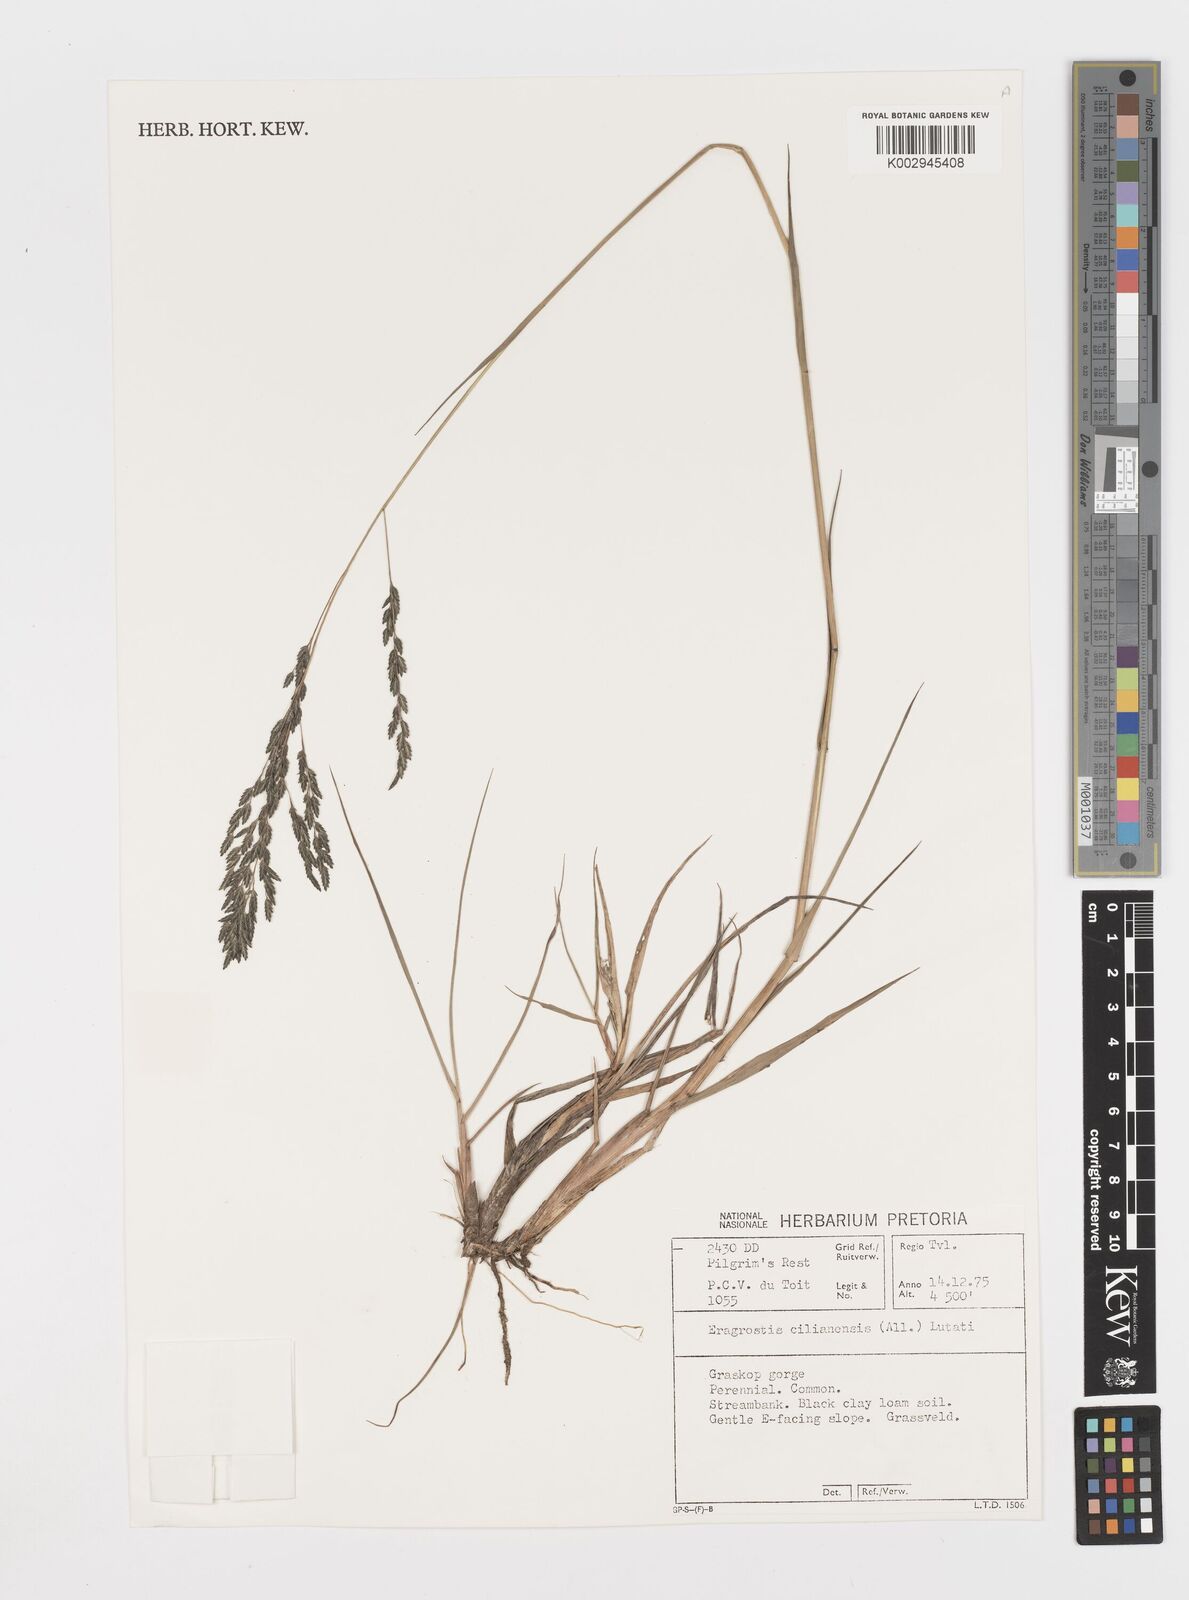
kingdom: Plantae
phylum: Tracheophyta
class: Liliopsida
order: Poales
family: Poaceae
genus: Eragrostis
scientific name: Eragrostis cilianensis
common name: Stinkgrass
